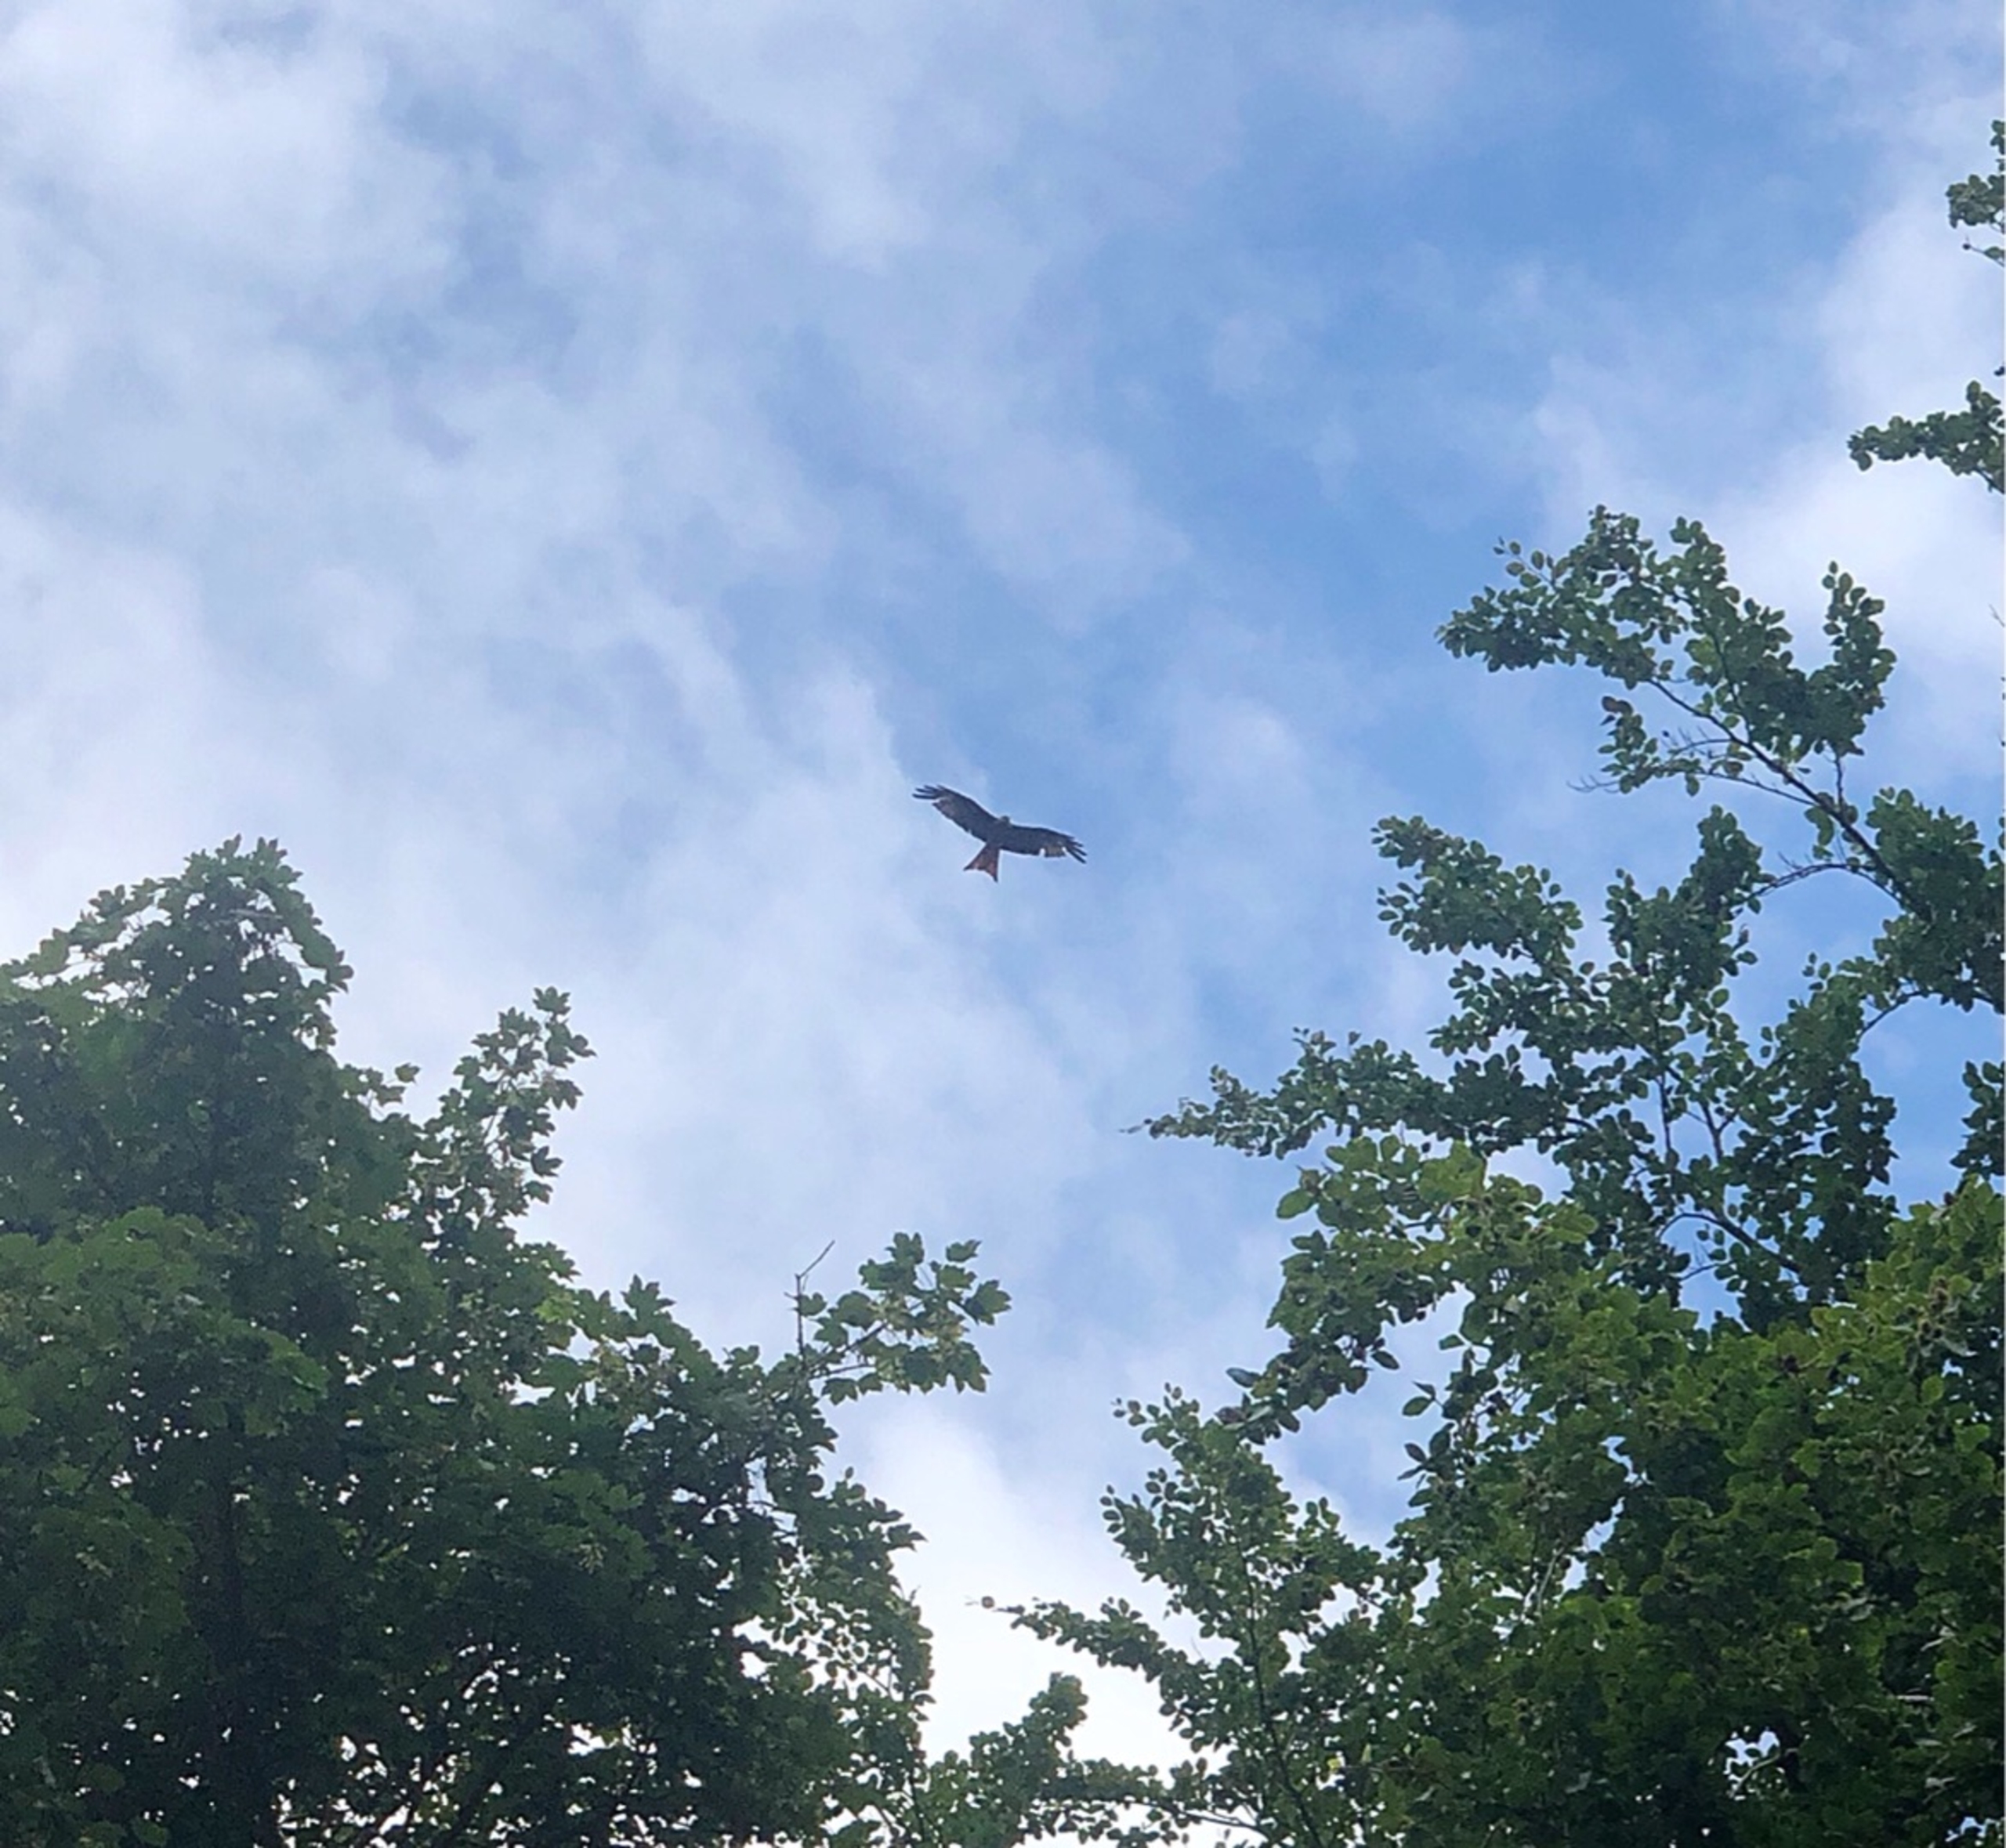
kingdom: Animalia
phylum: Chordata
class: Aves
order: Accipitriformes
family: Accipitridae
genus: Milvus
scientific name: Milvus milvus
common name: Rød glente
